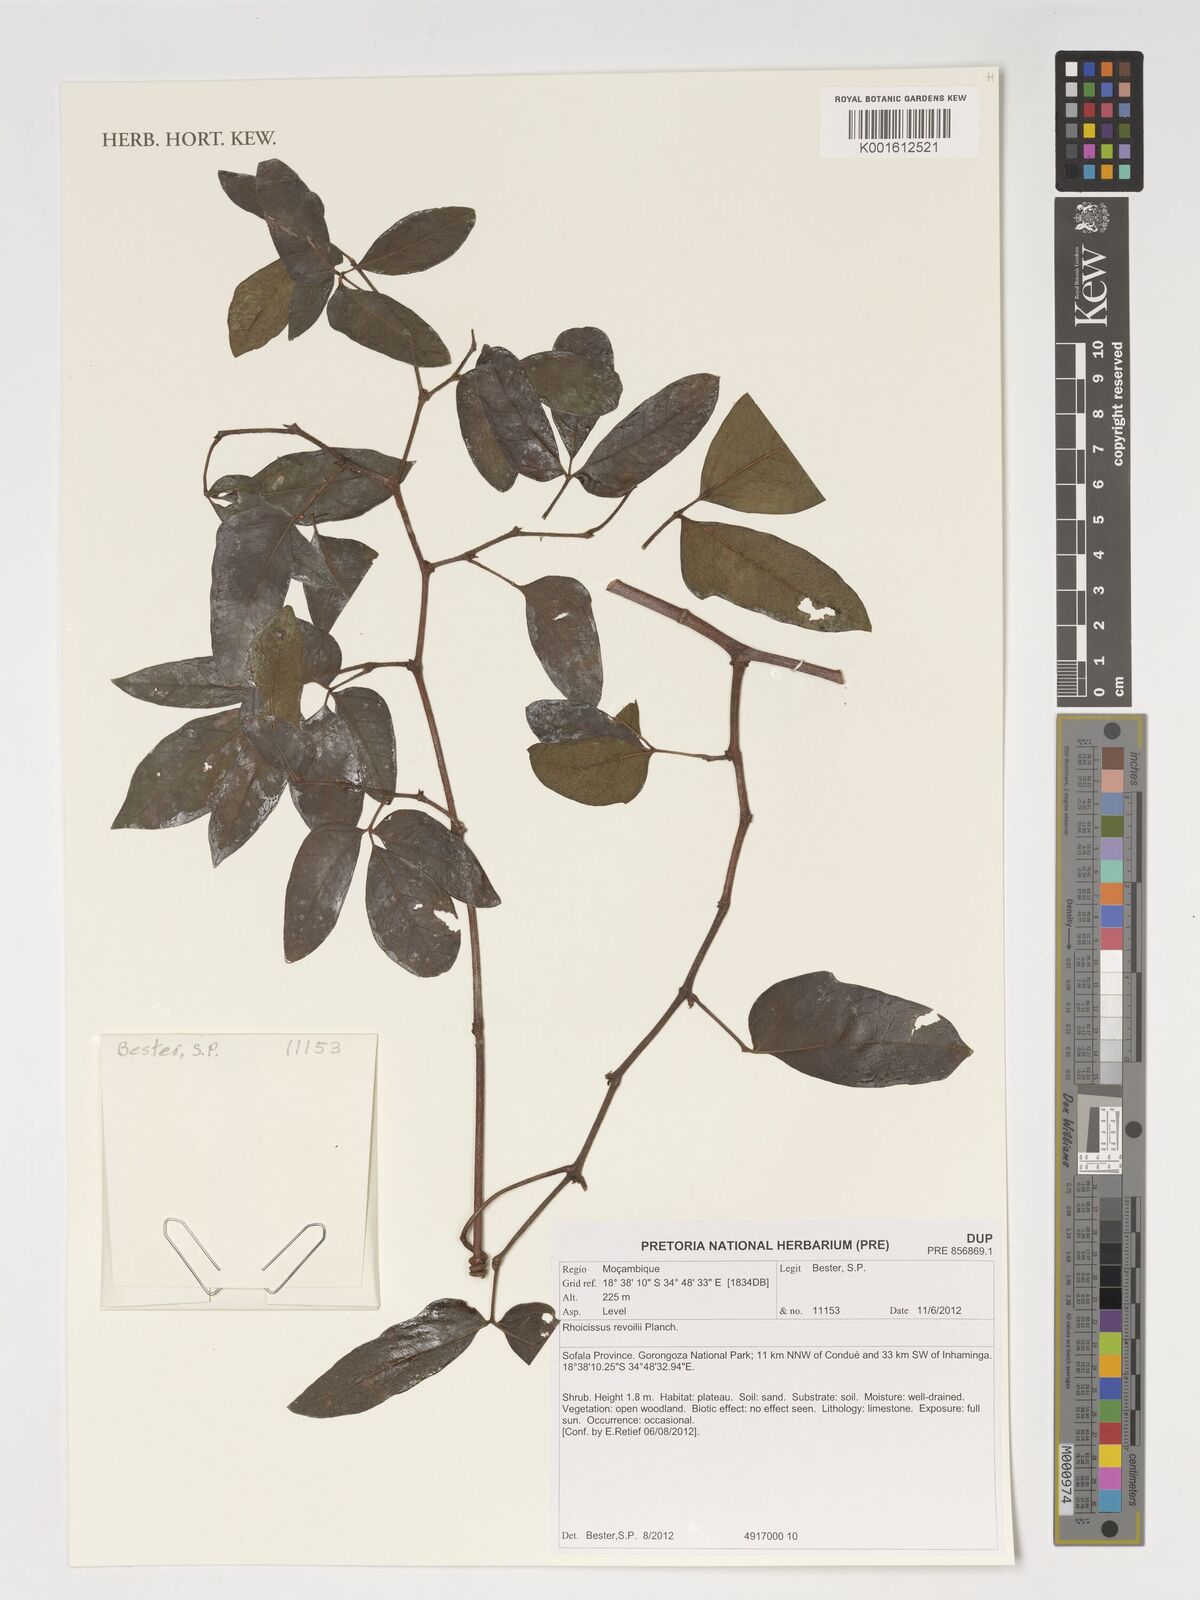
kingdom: Plantae
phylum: Tracheophyta
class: Magnoliopsida
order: Vitales
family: Vitaceae
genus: Rhoicissus
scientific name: Rhoicissus revoilii
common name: Bushveld grape
